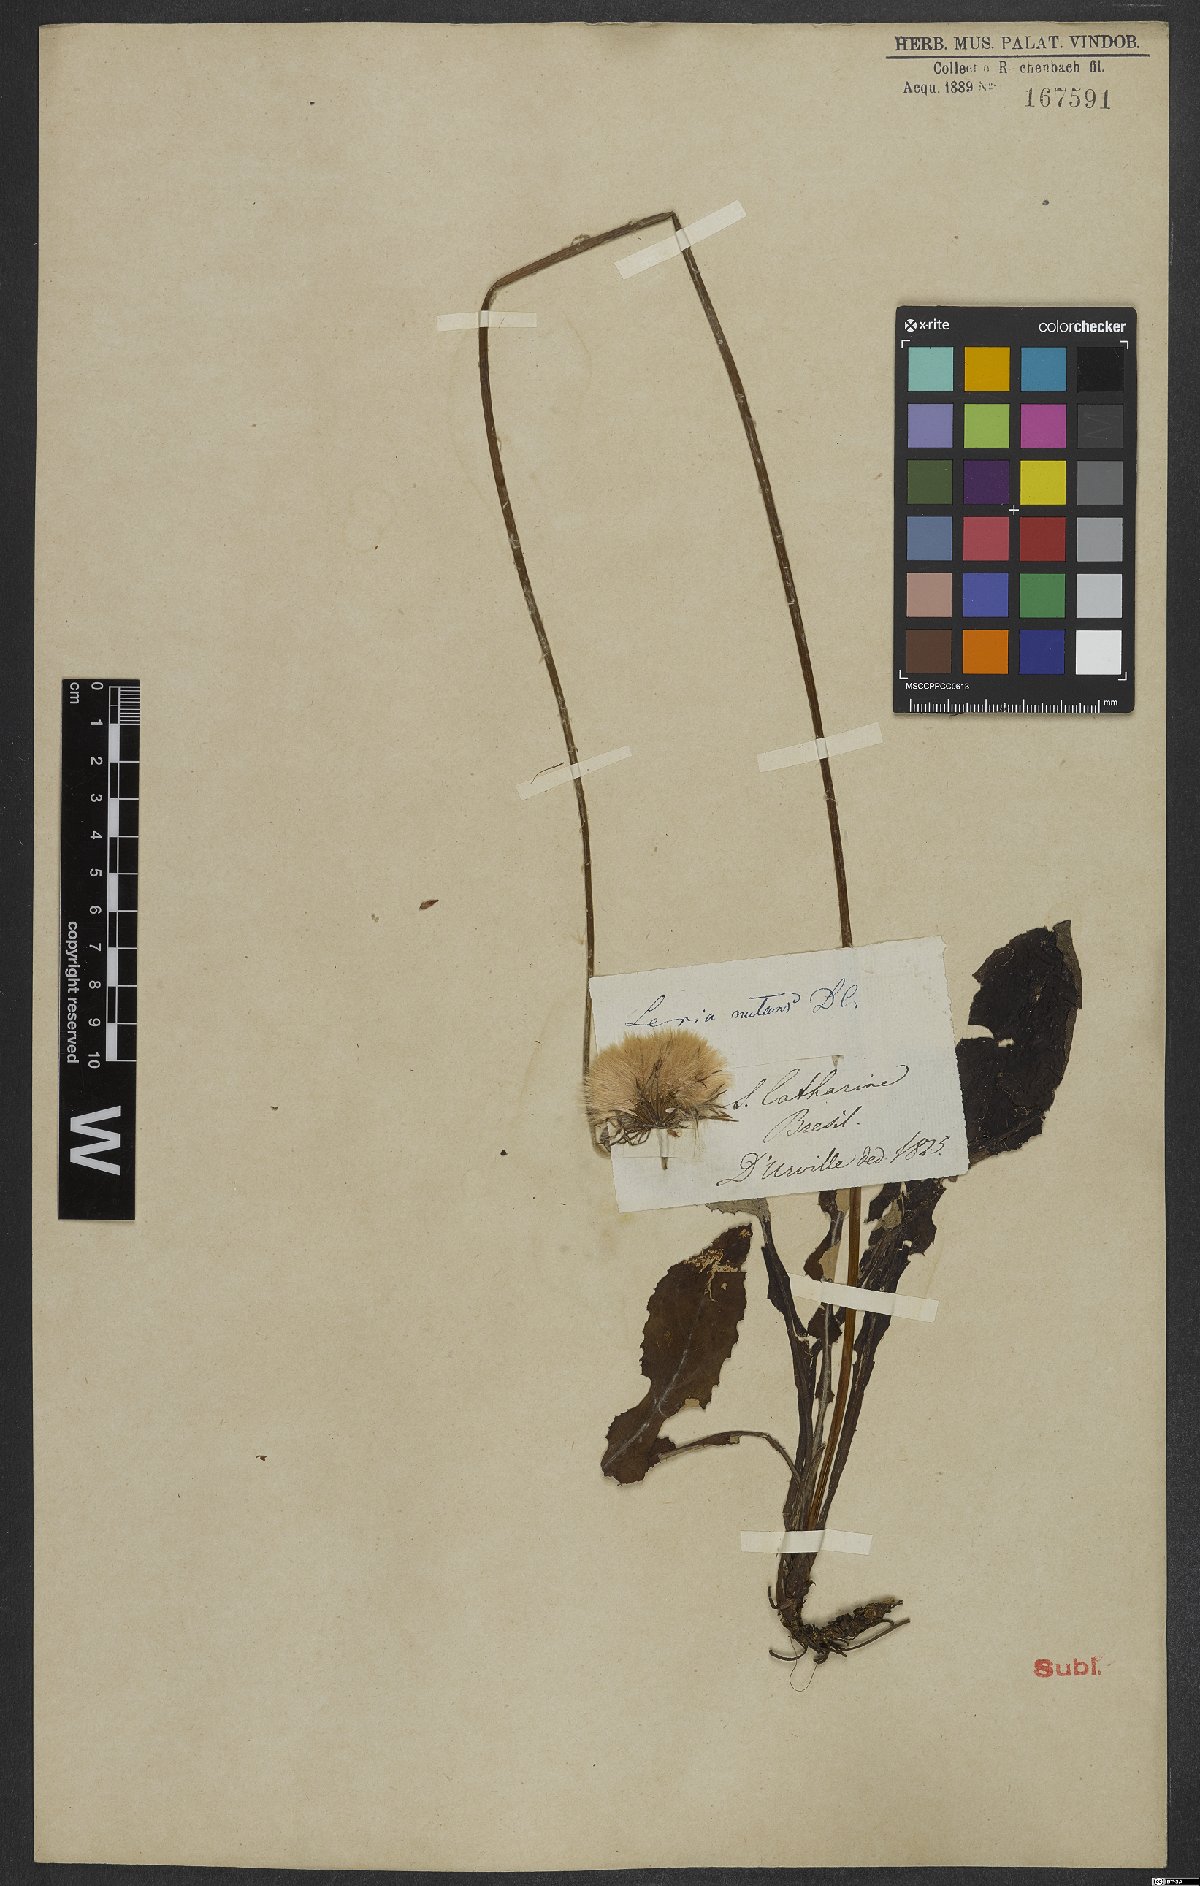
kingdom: Plantae
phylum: Tracheophyta
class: Magnoliopsida
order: Asterales
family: Asteraceae
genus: Chaptalia
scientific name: Chaptalia nutans
